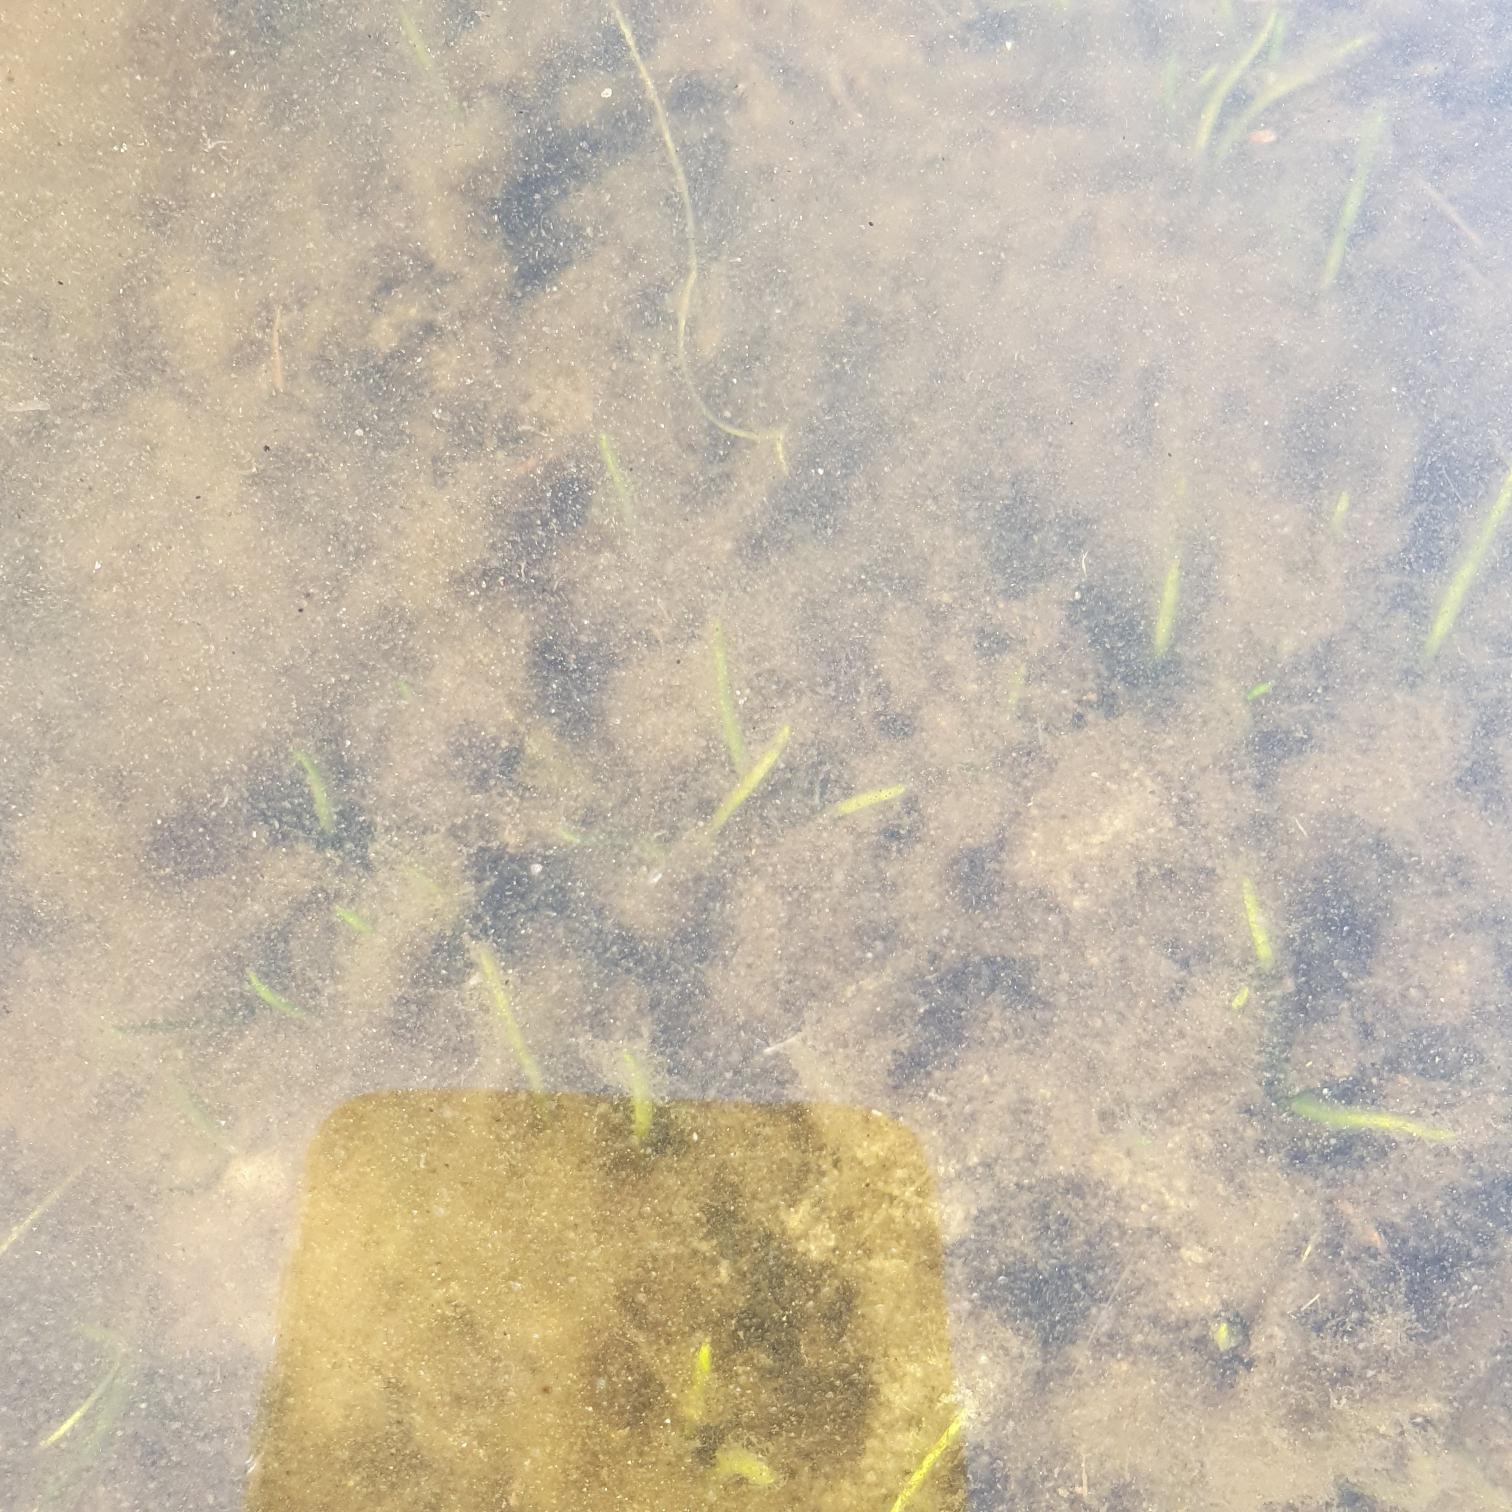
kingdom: Plantae
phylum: Tracheophyta
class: Magnoliopsida
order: Lamiales
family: Plantaginaceae
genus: Littorella
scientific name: Littorella uniflora
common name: Strandbo
